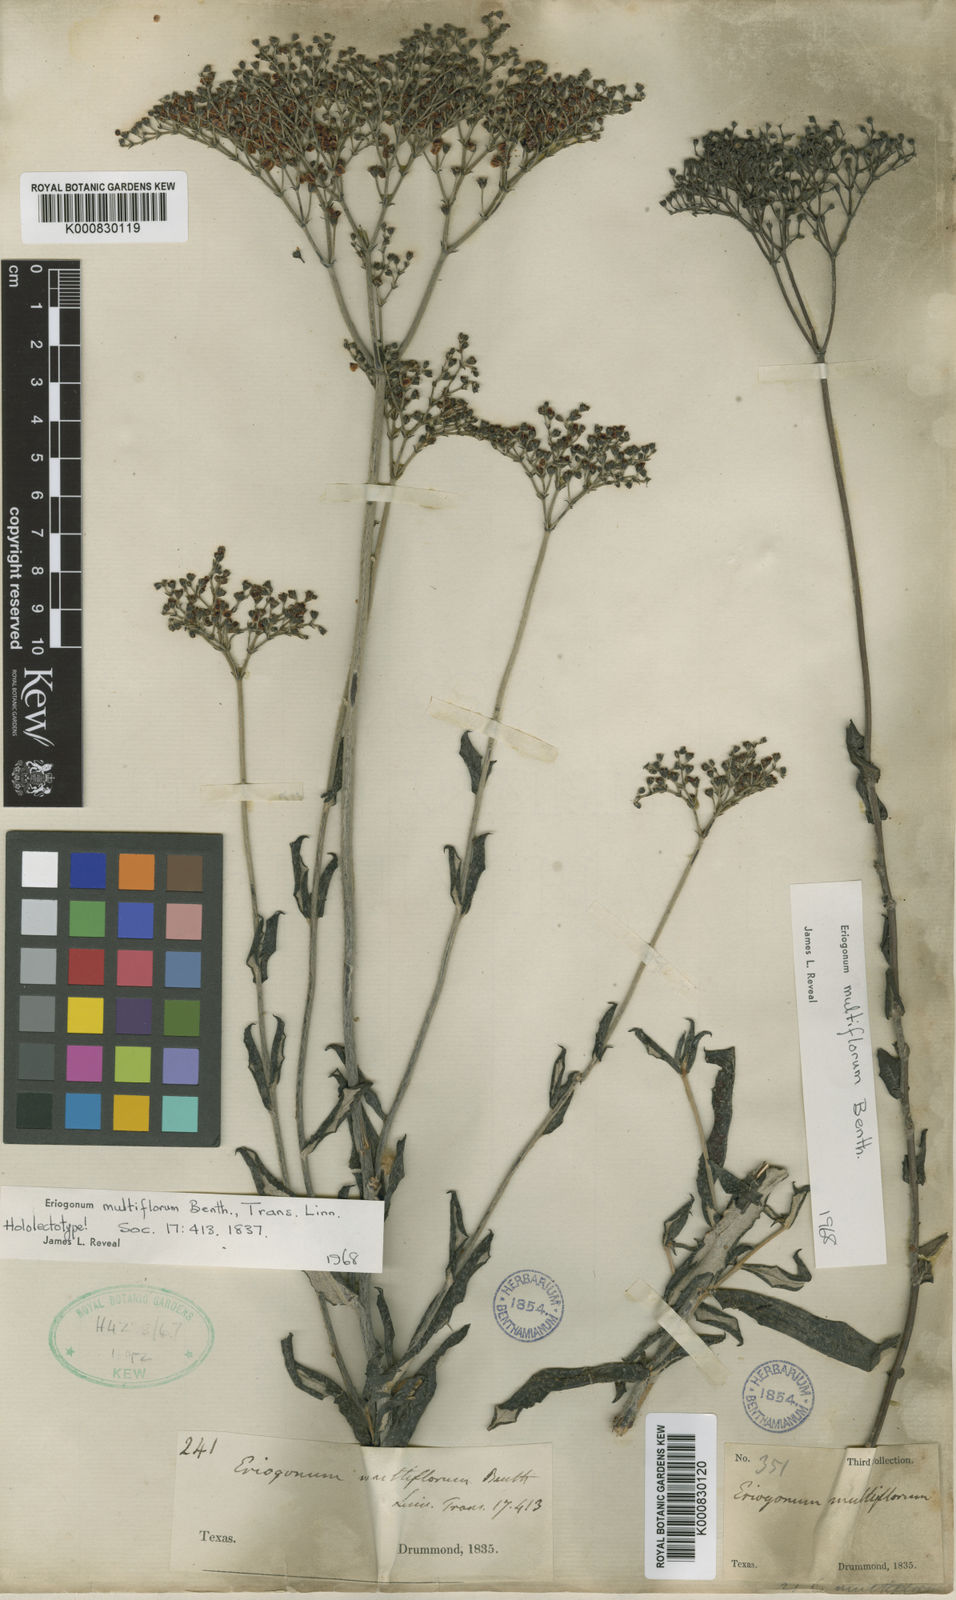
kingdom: Plantae
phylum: Tracheophyta
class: Magnoliopsida
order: Caryophyllales
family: Polygonaceae
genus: Eriogonum
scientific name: Eriogonum multiflorum
